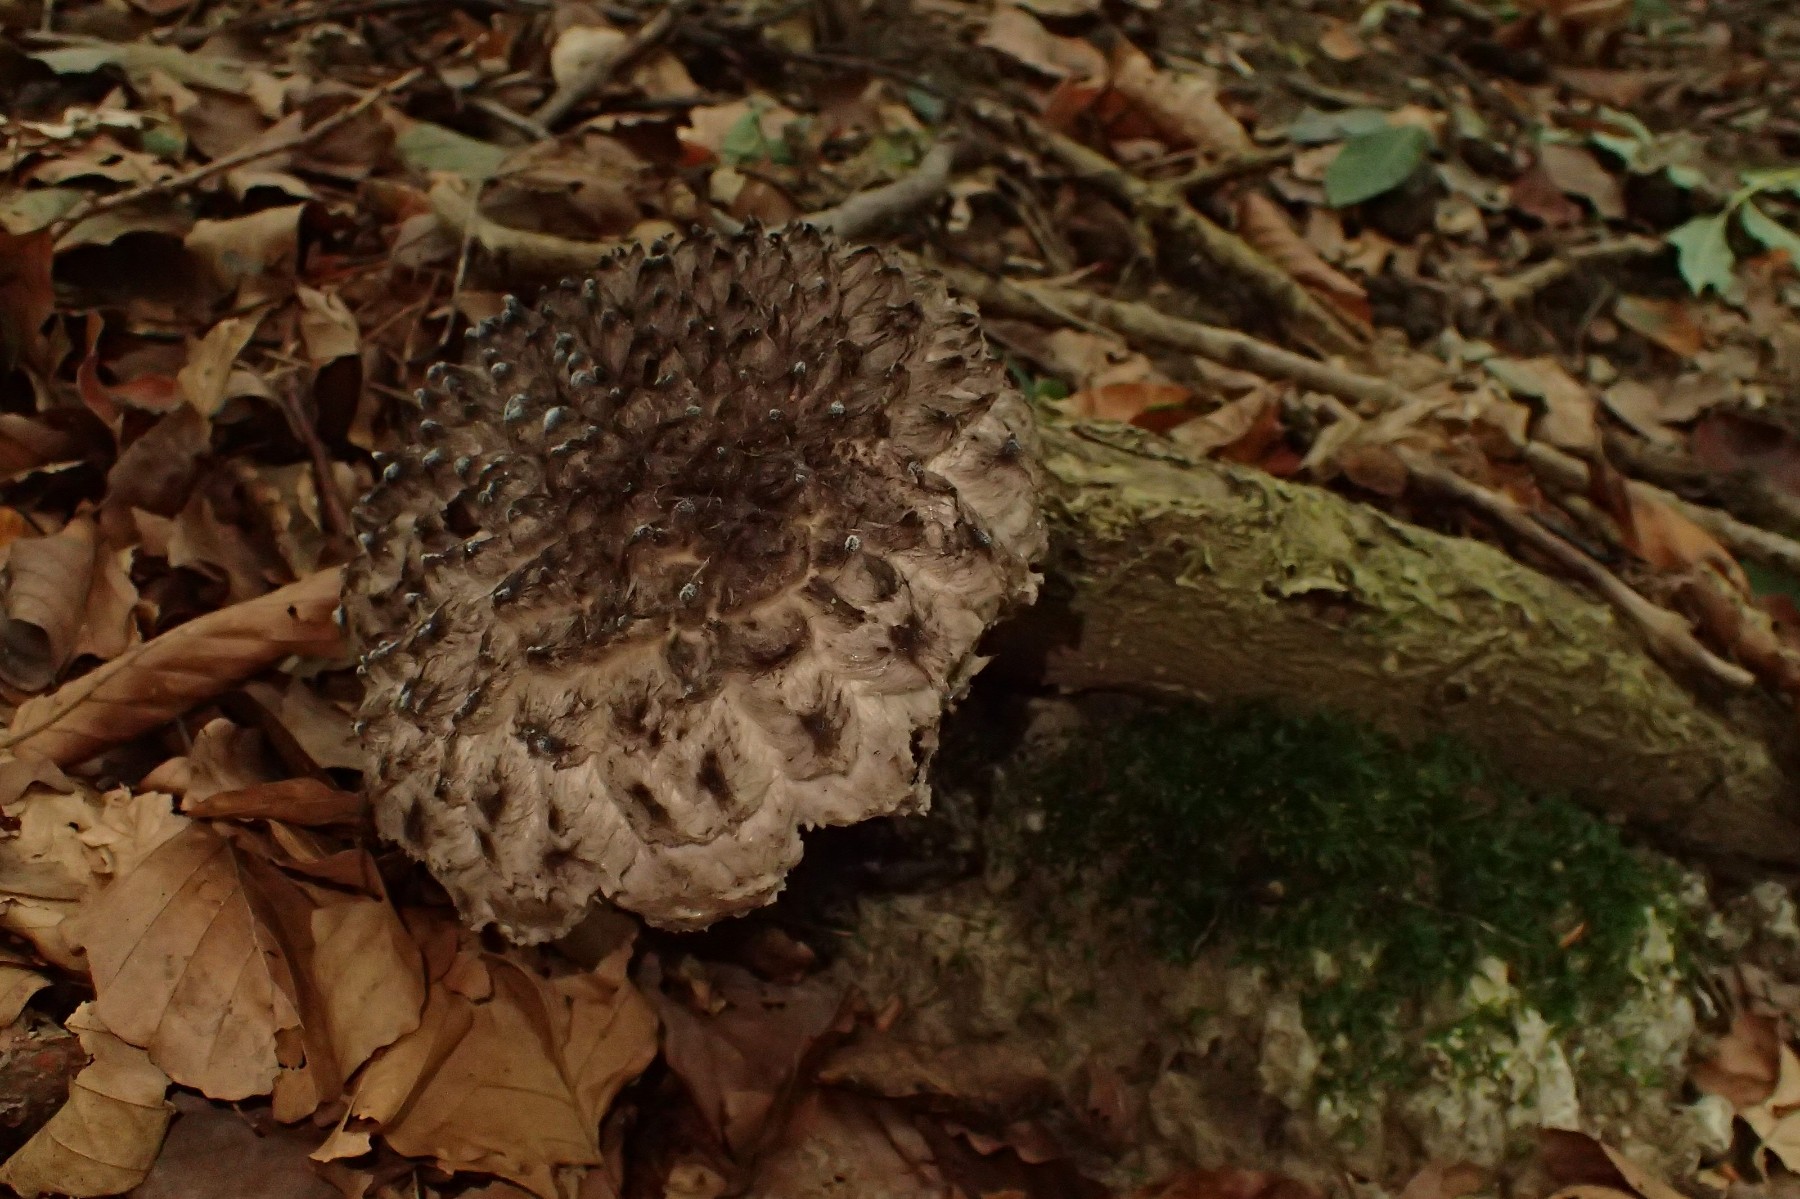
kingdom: Fungi
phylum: Basidiomycota
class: Agaricomycetes
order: Boletales
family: Boletaceae
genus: Strobilomyces
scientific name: Strobilomyces strobilaceus
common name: koglerørhat
